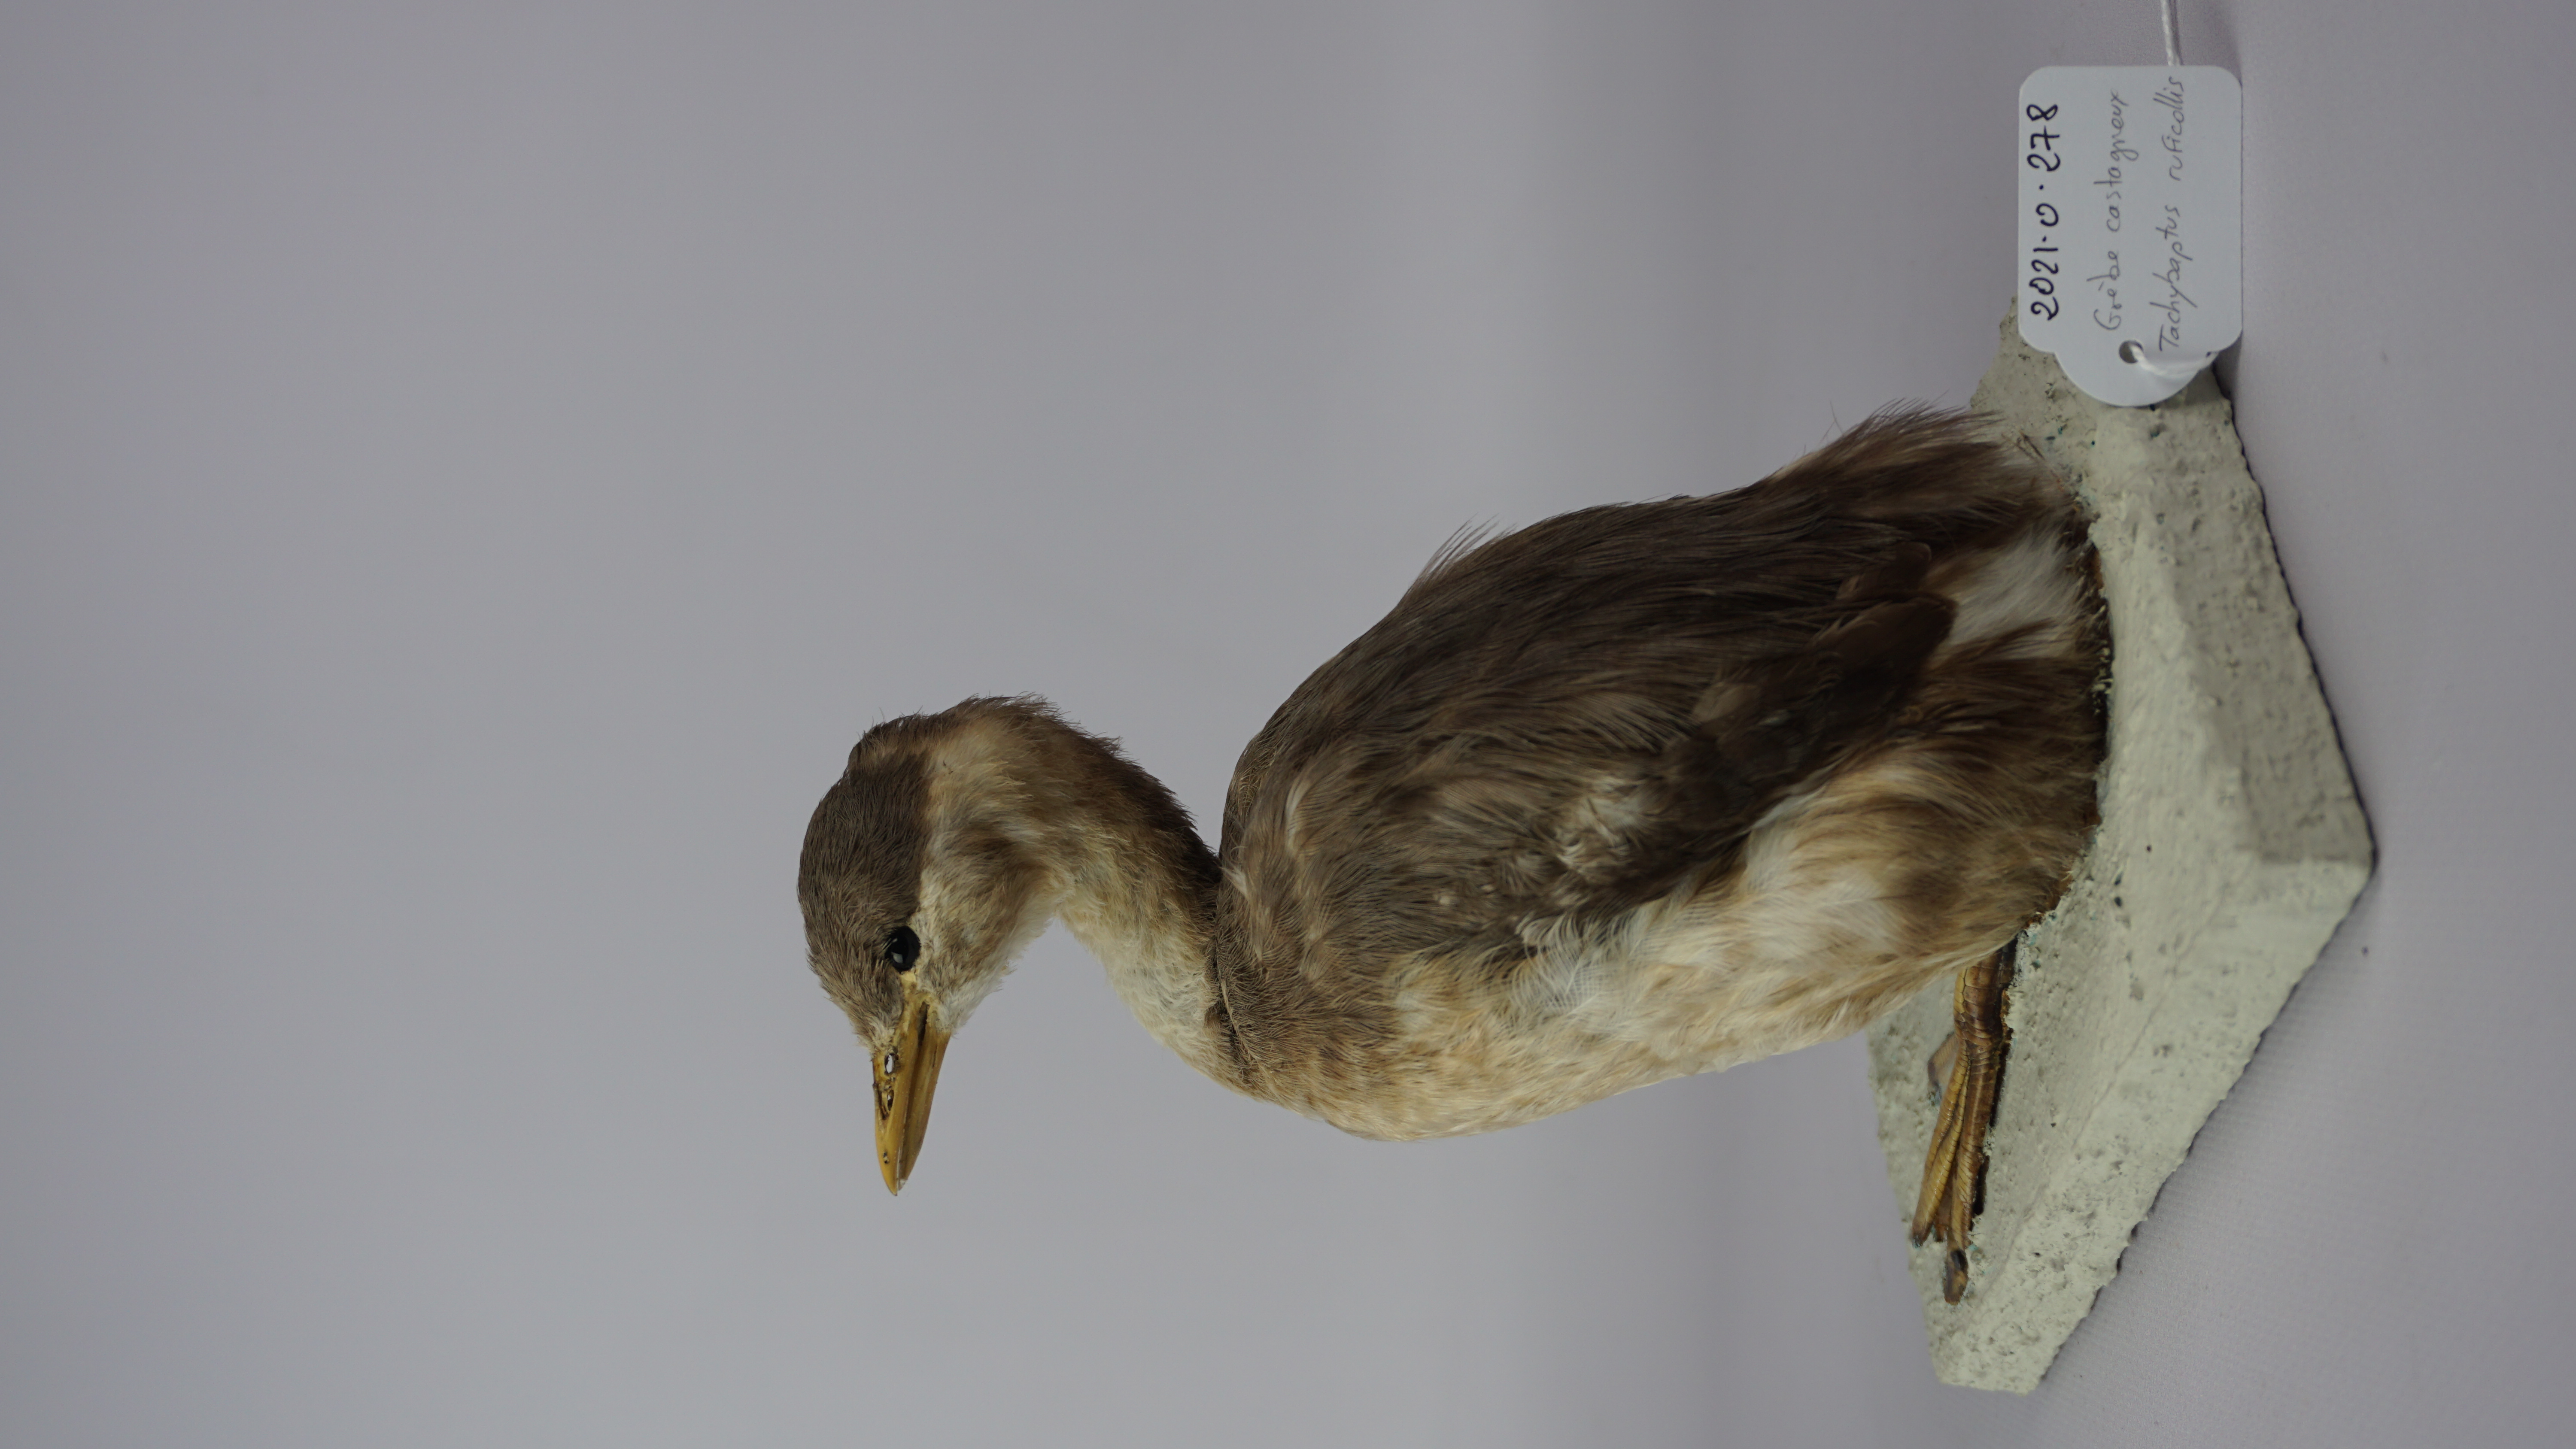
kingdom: Animalia
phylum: Chordata
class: Aves
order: Podicipediformes
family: Podicipedidae
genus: Tachybaptus
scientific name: Tachybaptus ruficollis
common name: Little grebe
